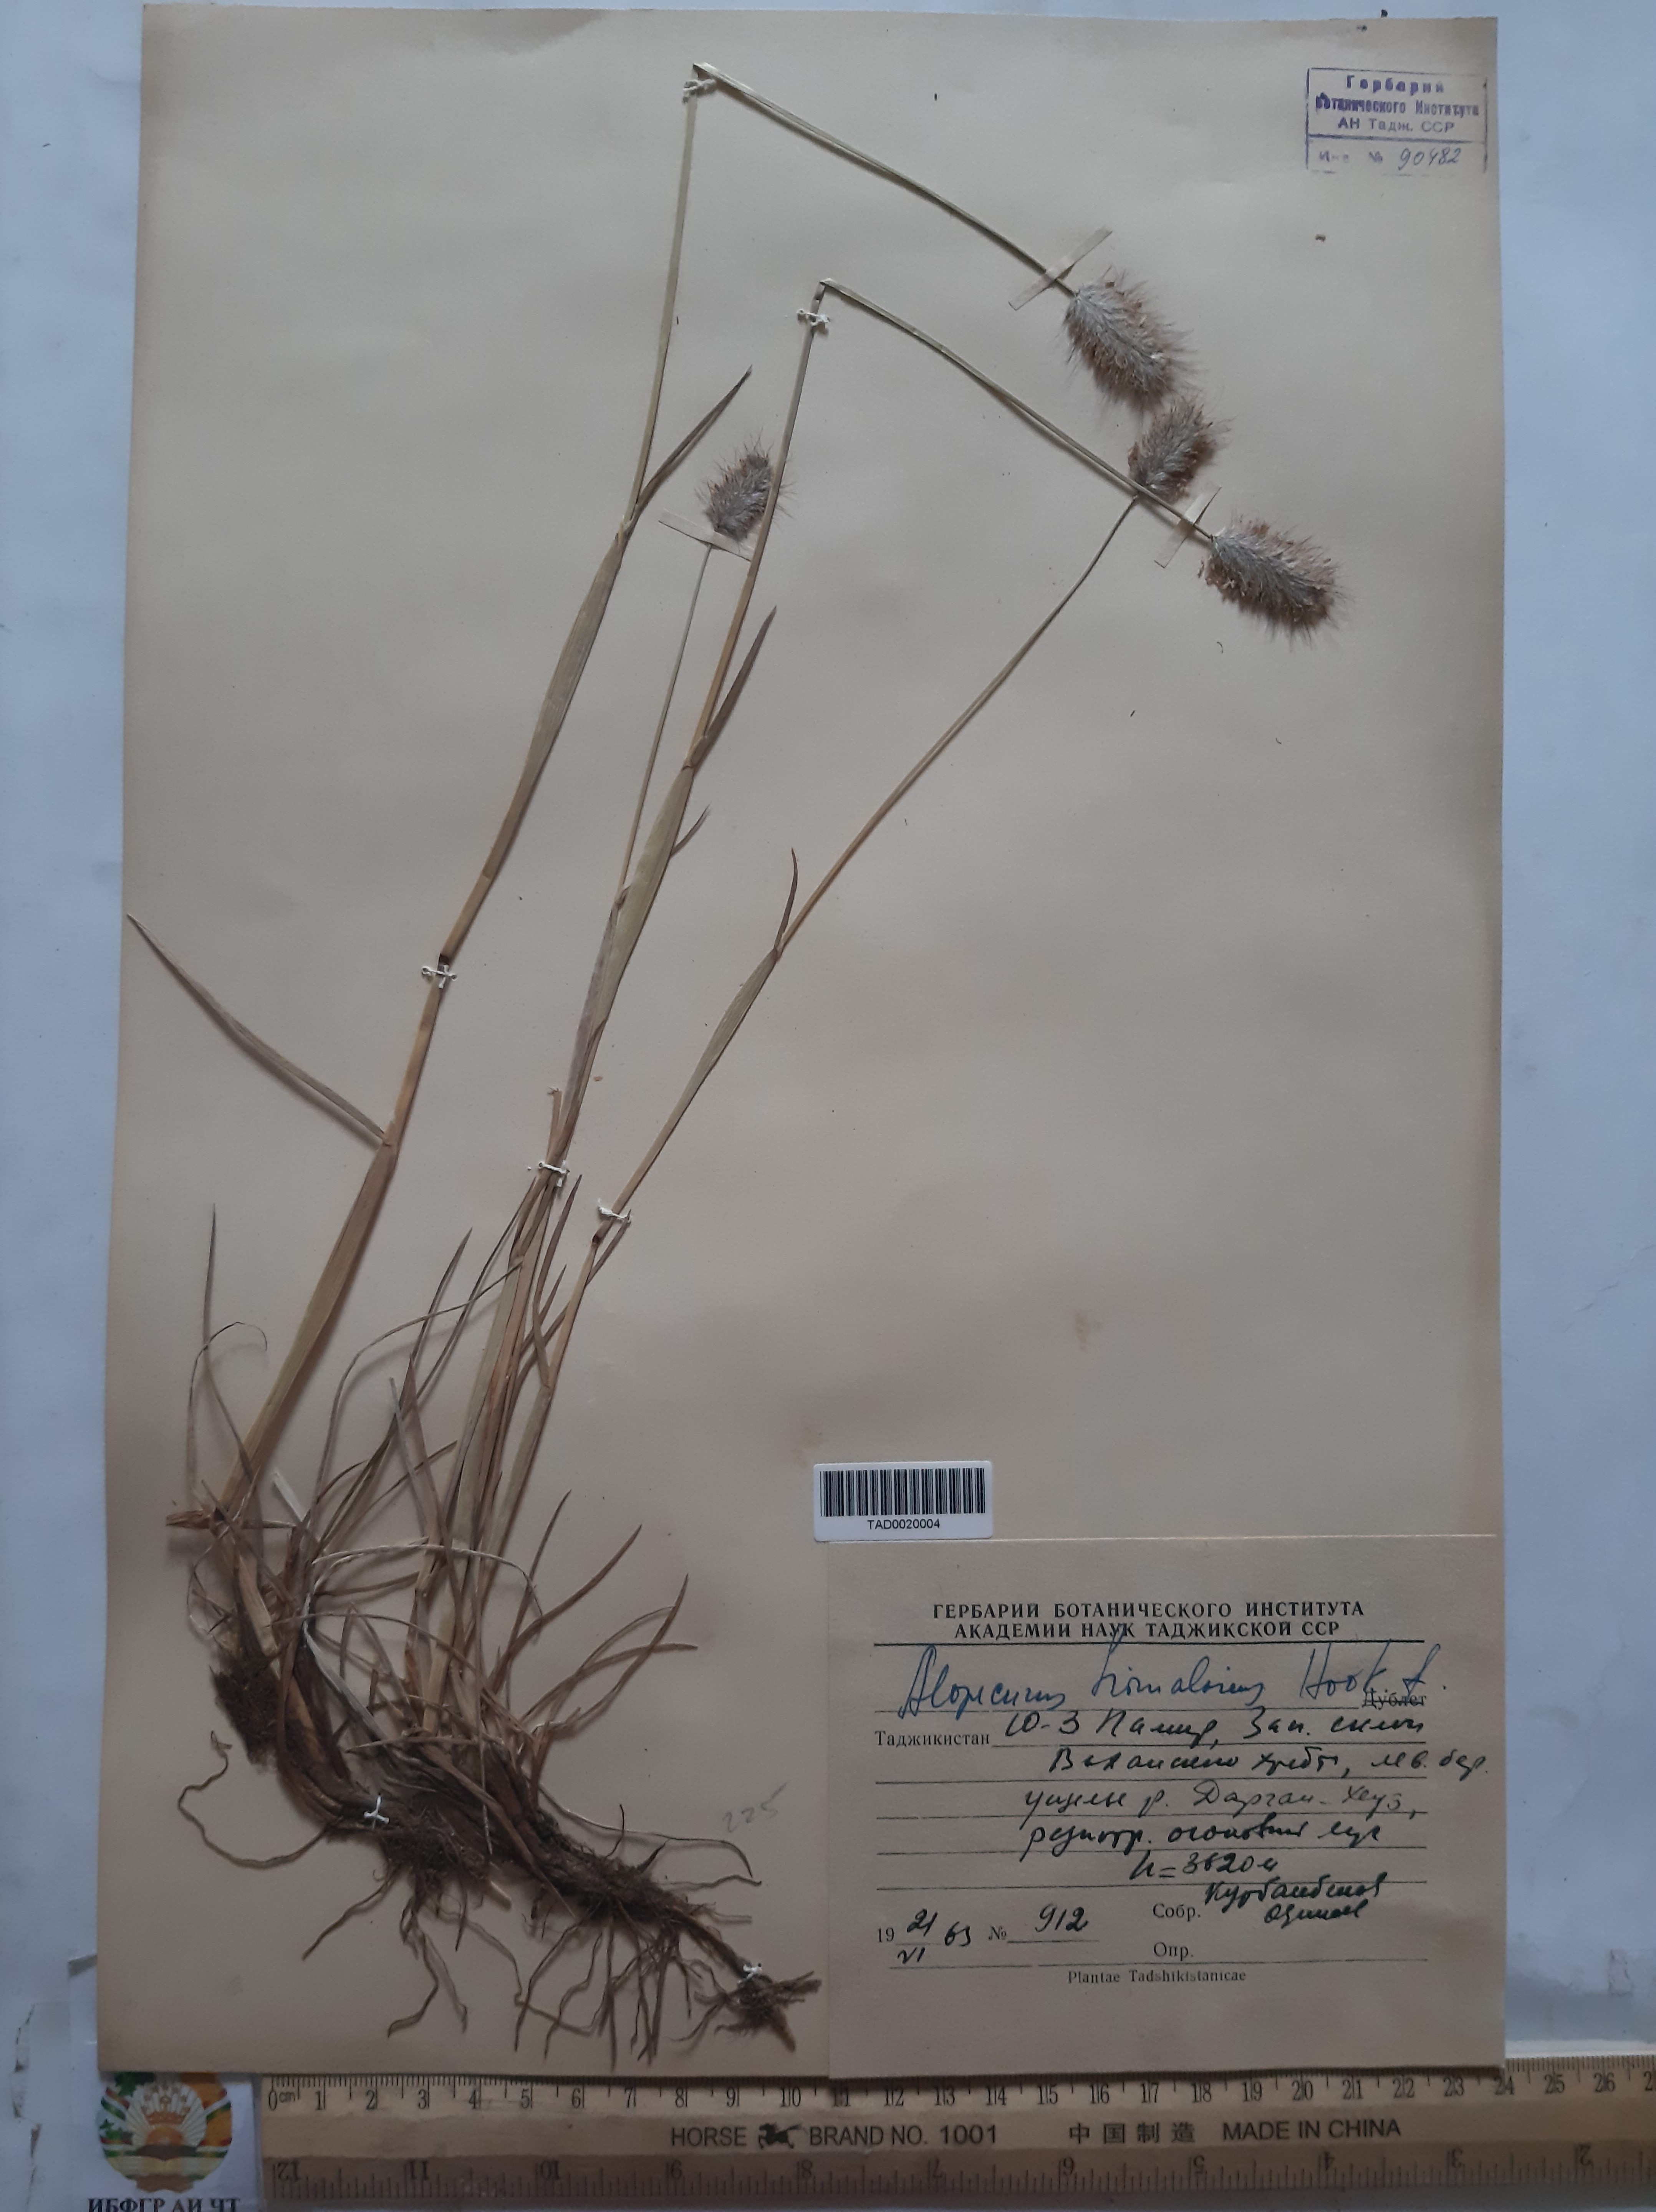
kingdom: Plantae
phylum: Tracheophyta
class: Liliopsida
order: Poales
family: Poaceae
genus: Alopecurus
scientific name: Alopecurus himalaicus
